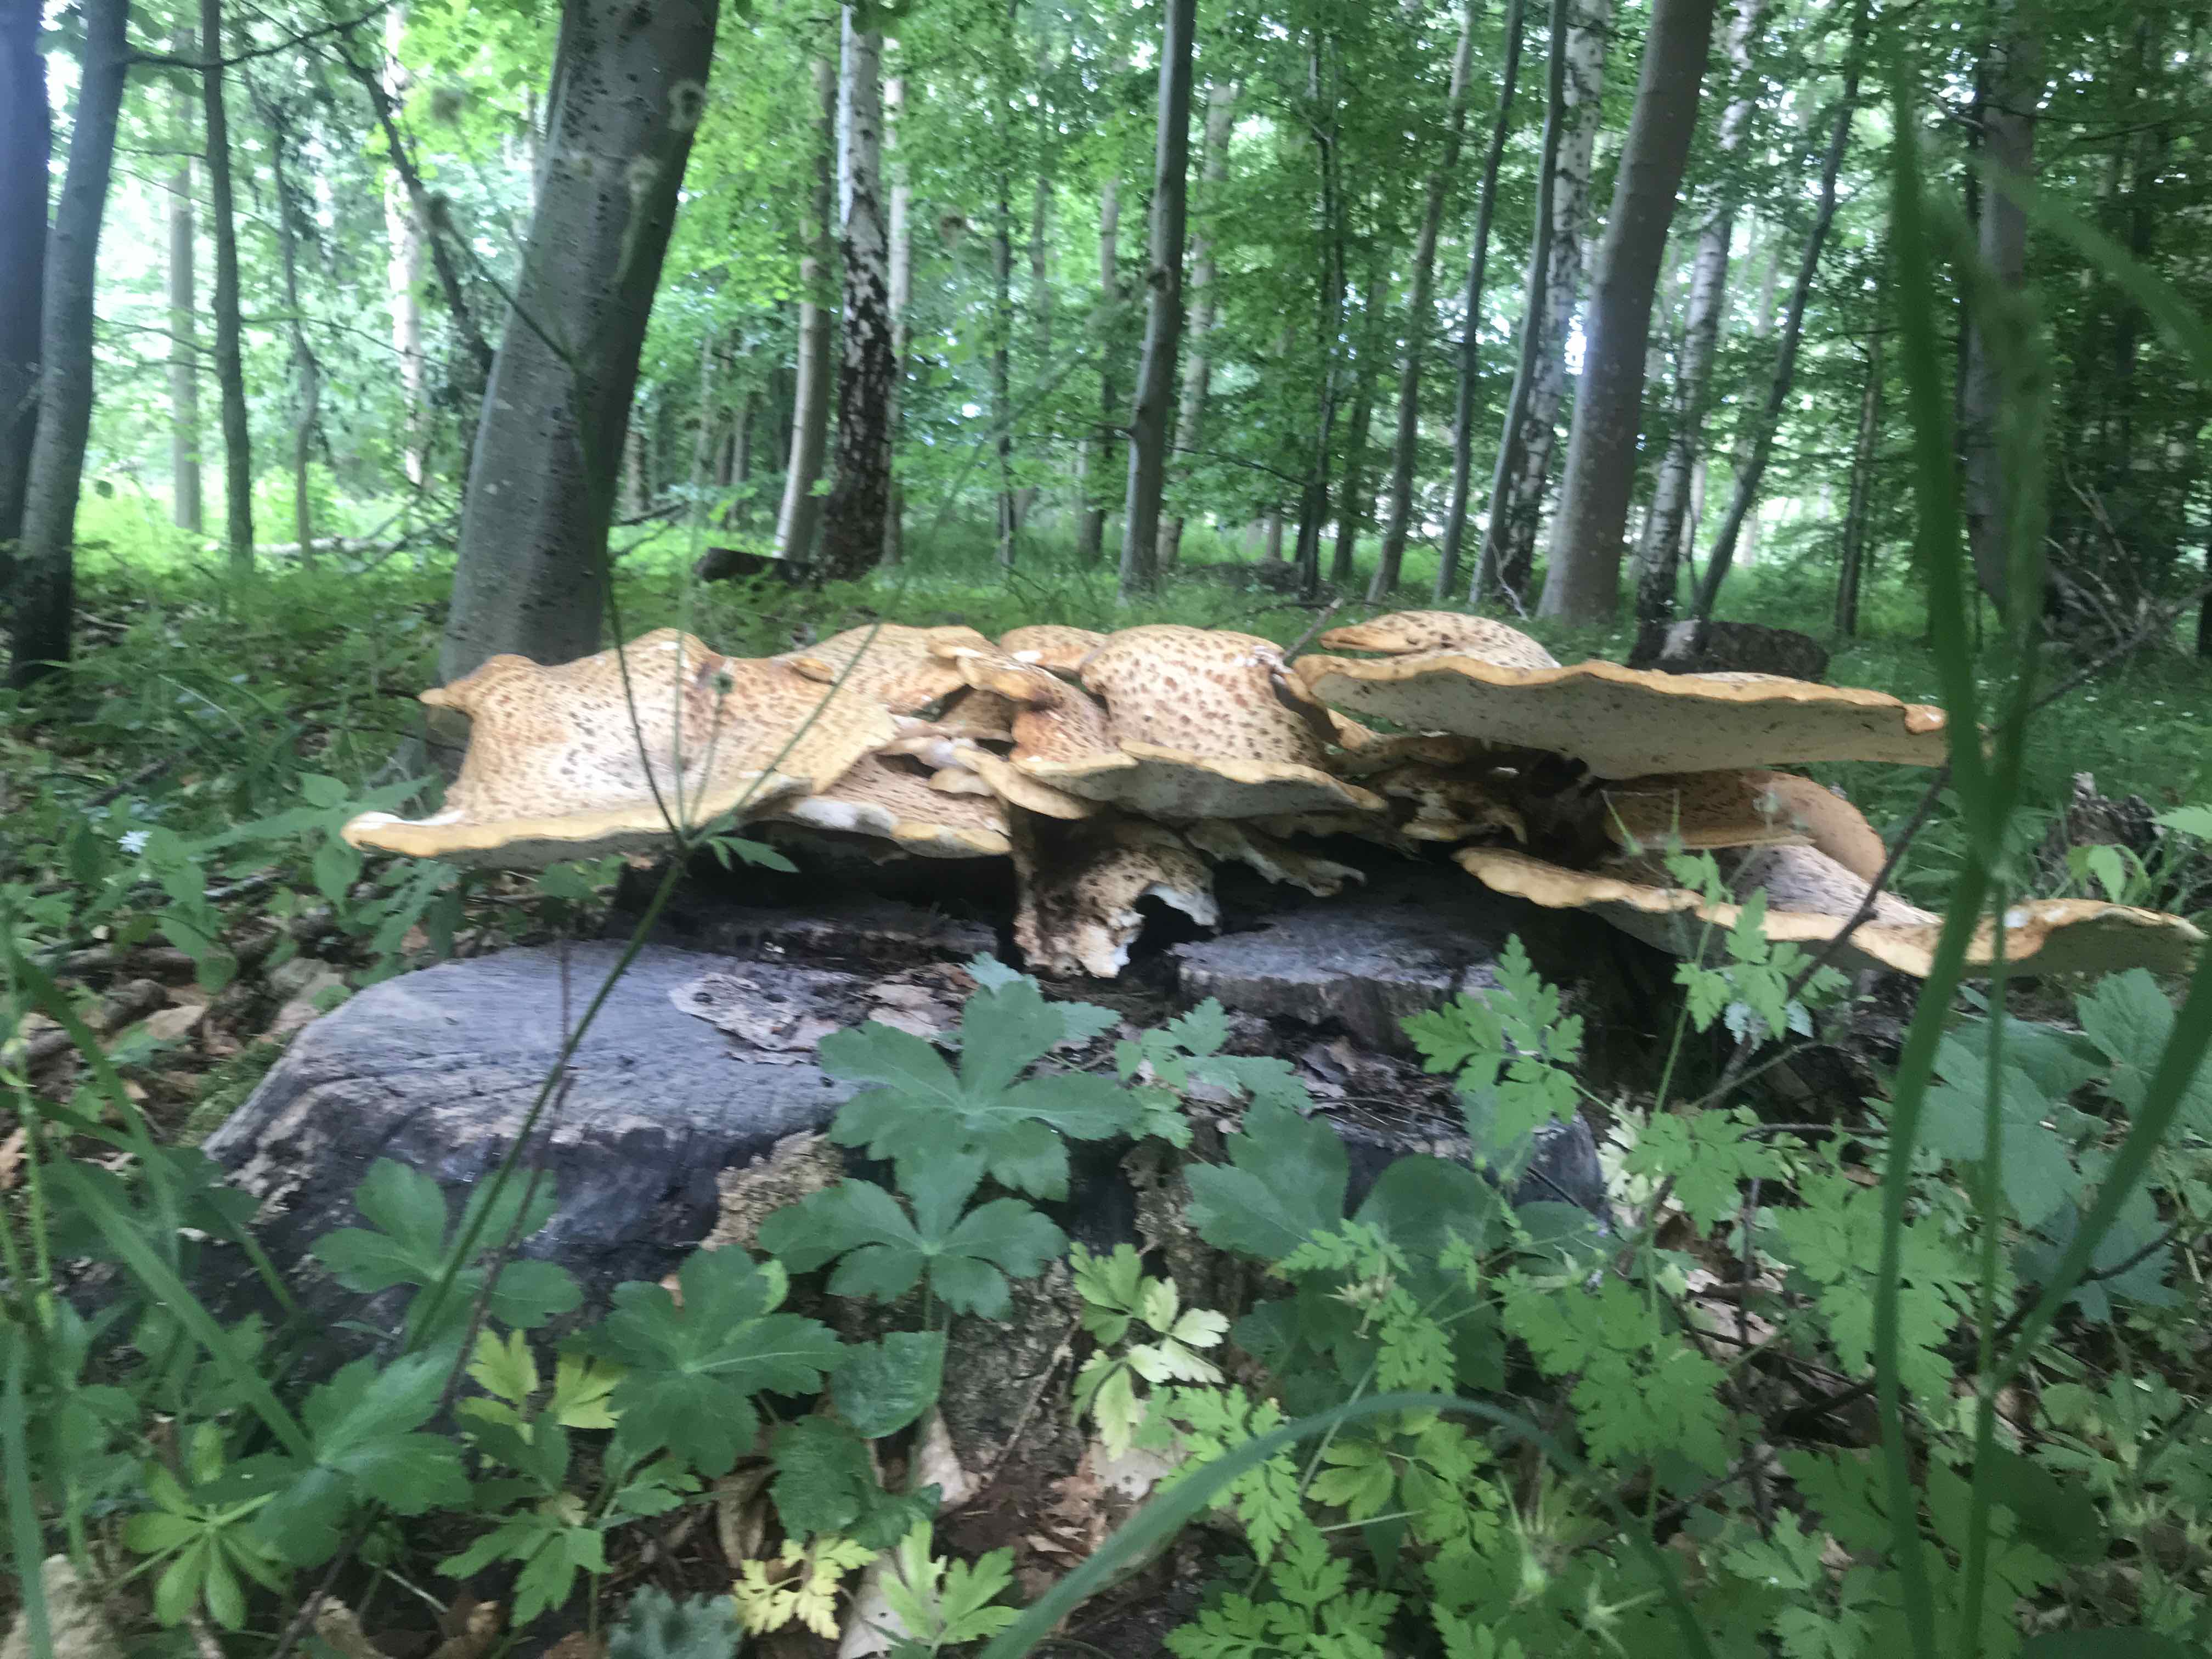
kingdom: Fungi
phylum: Basidiomycota
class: Agaricomycetes
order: Polyporales
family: Polyporaceae
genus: Cerioporus
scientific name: Cerioporus squamosus
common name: skællet stilkporesvamp
